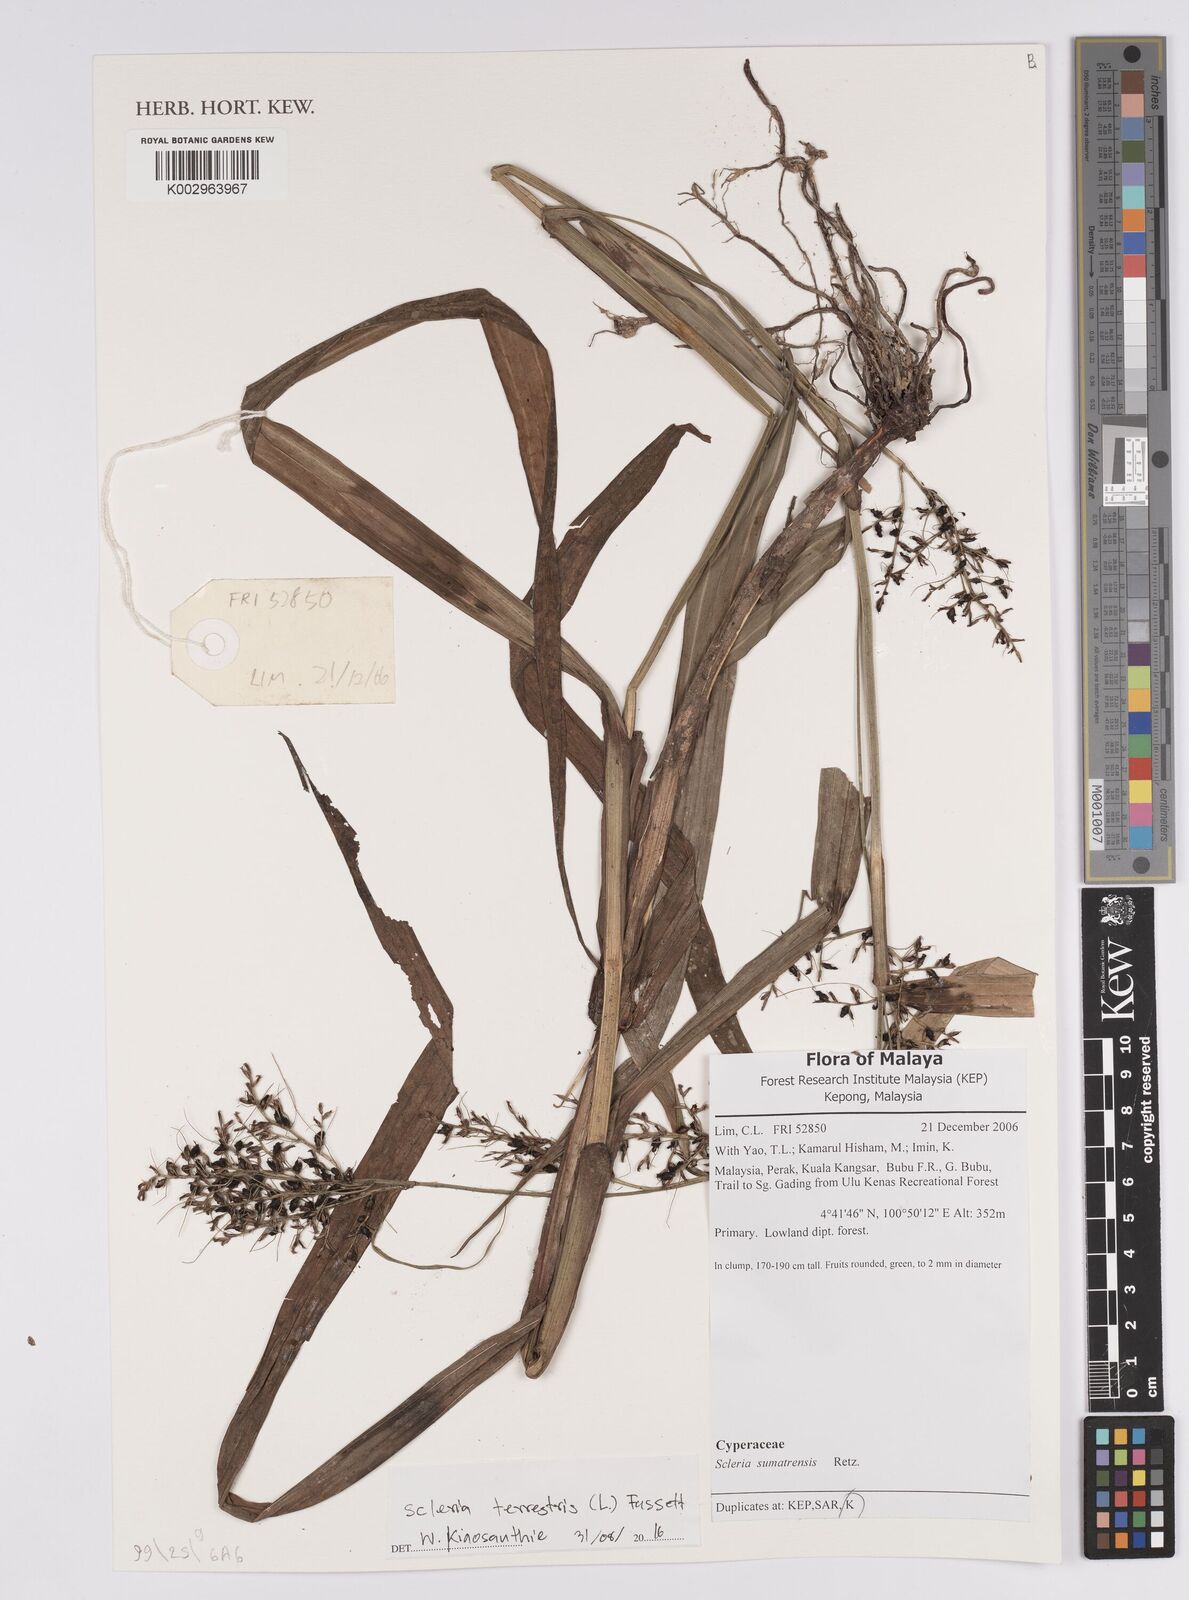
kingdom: Plantae
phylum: Tracheophyta
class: Liliopsida
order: Poales
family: Cyperaceae
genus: Scleria
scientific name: Scleria terrestris
